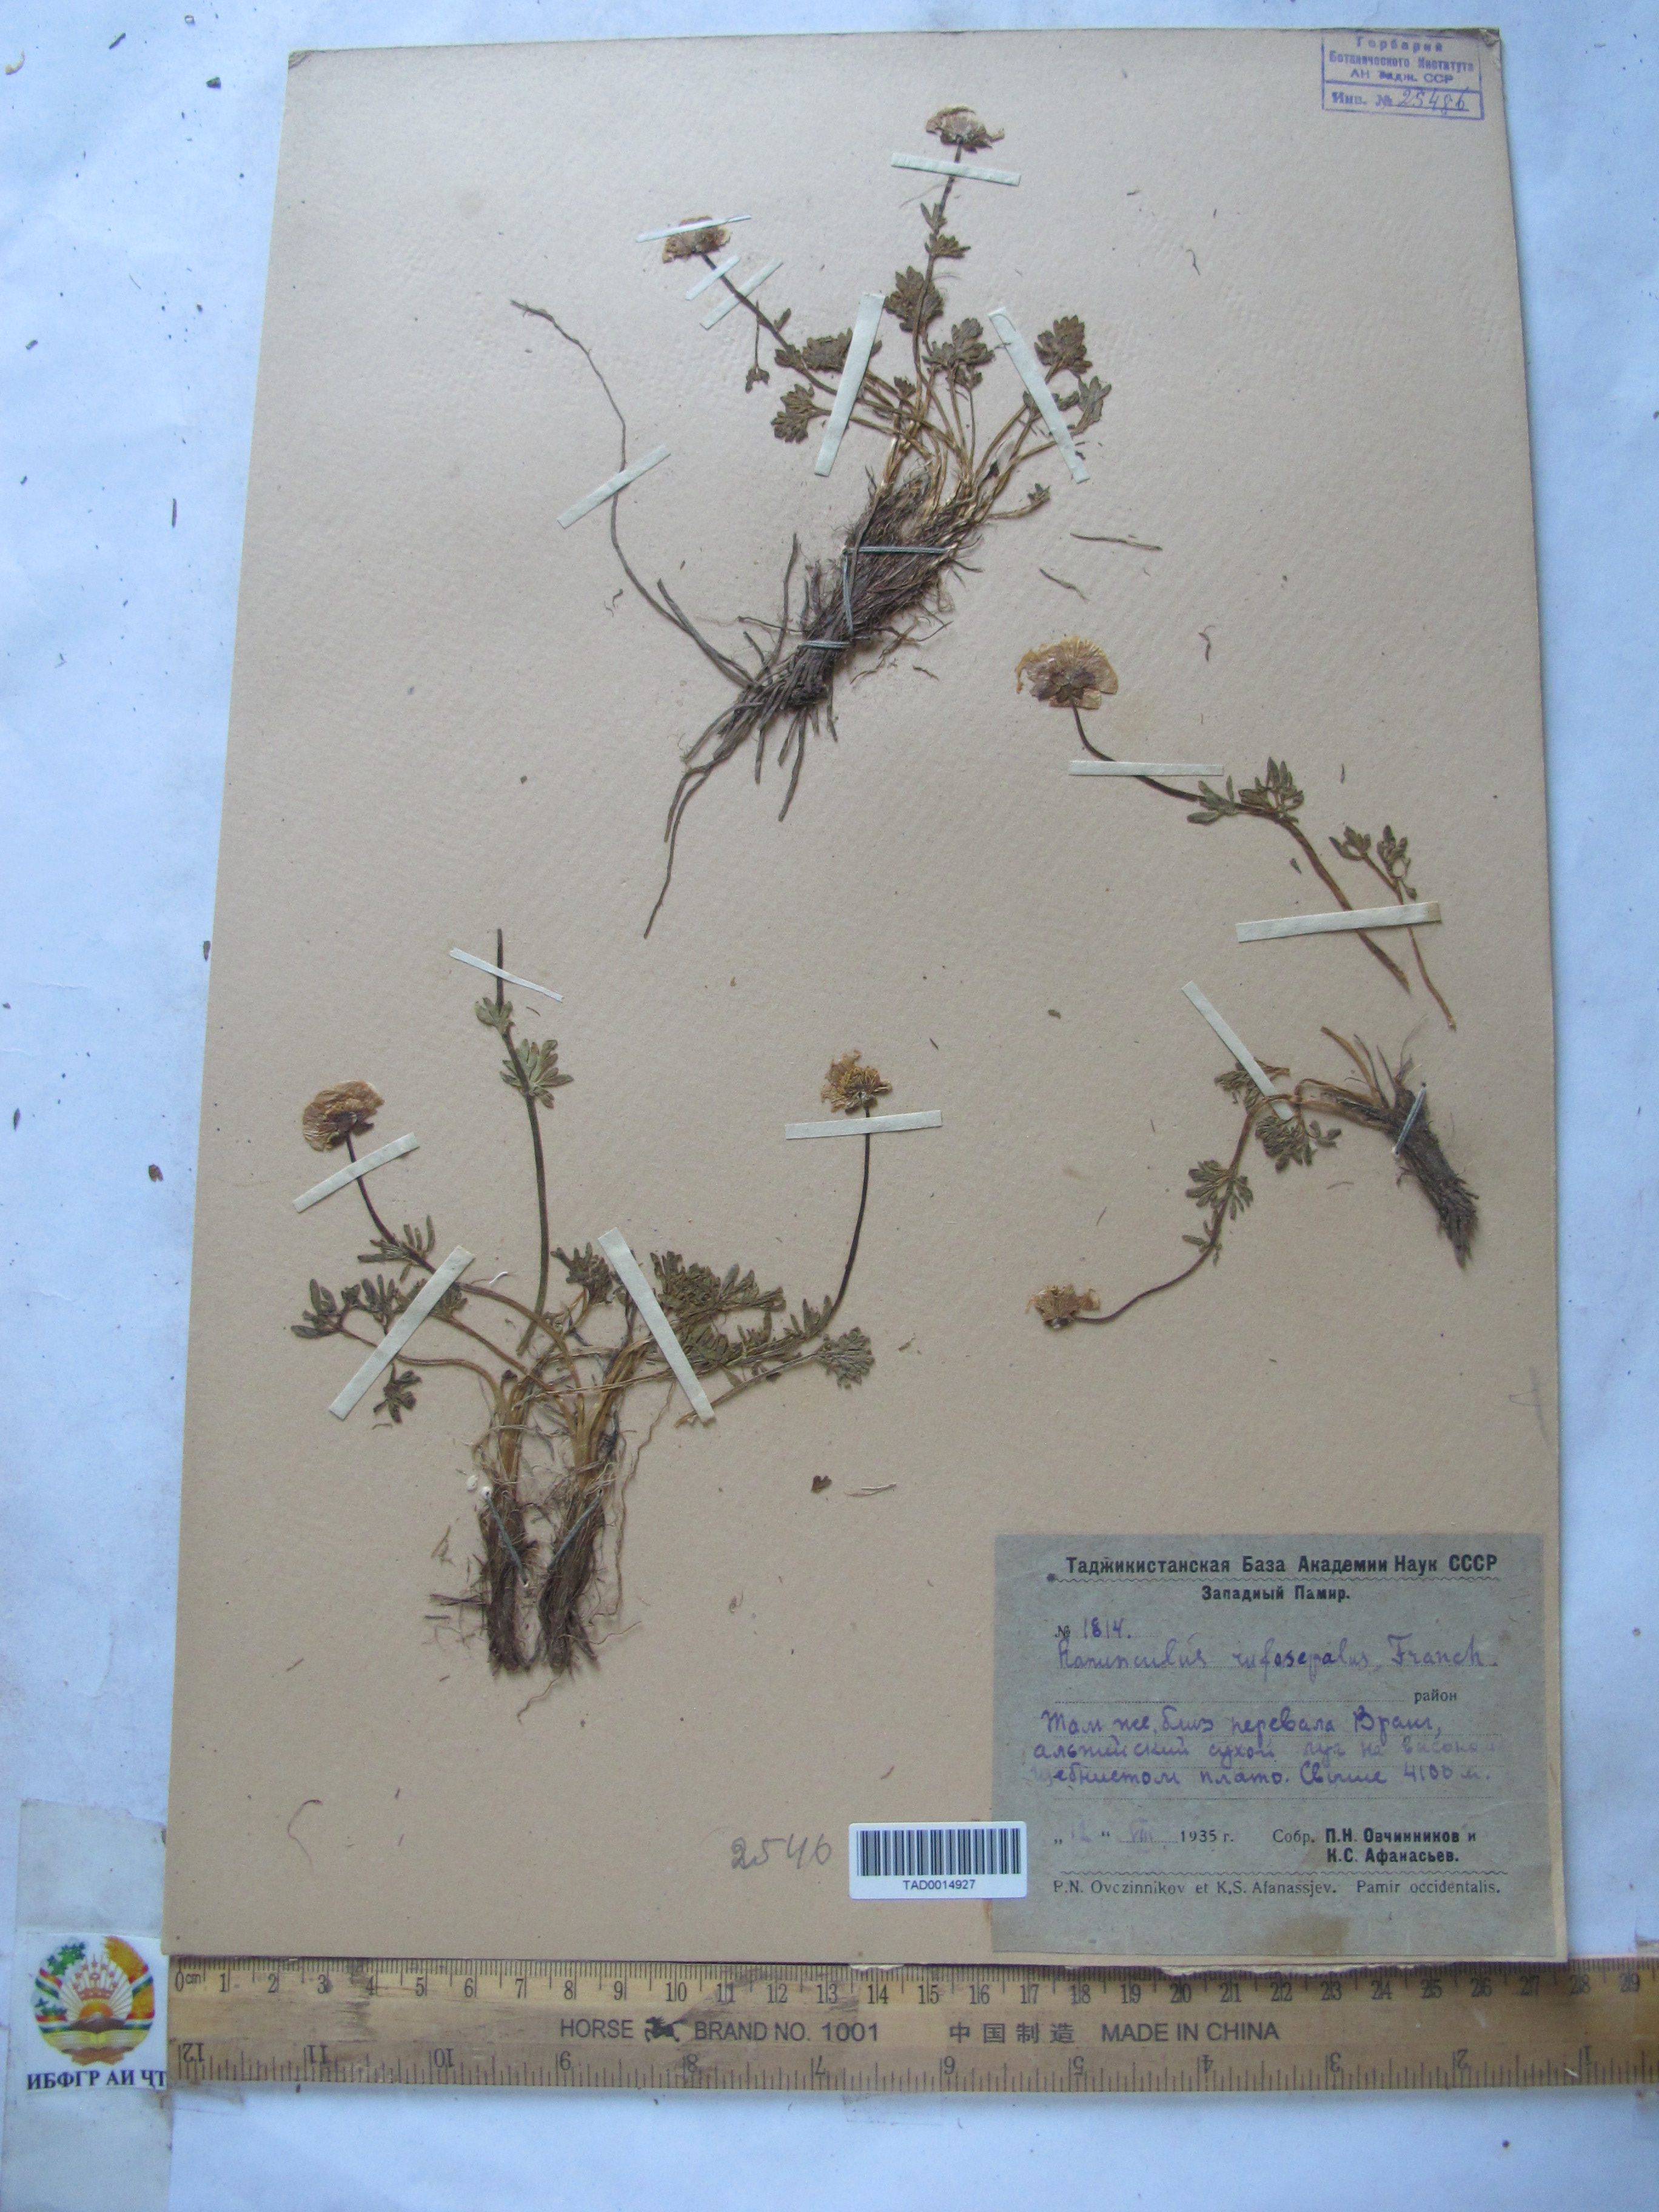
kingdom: Plantae
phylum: Tracheophyta
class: Magnoliopsida
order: Ranunculales
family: Ranunculaceae
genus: Ranunculus
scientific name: Ranunculus rufosepalus
